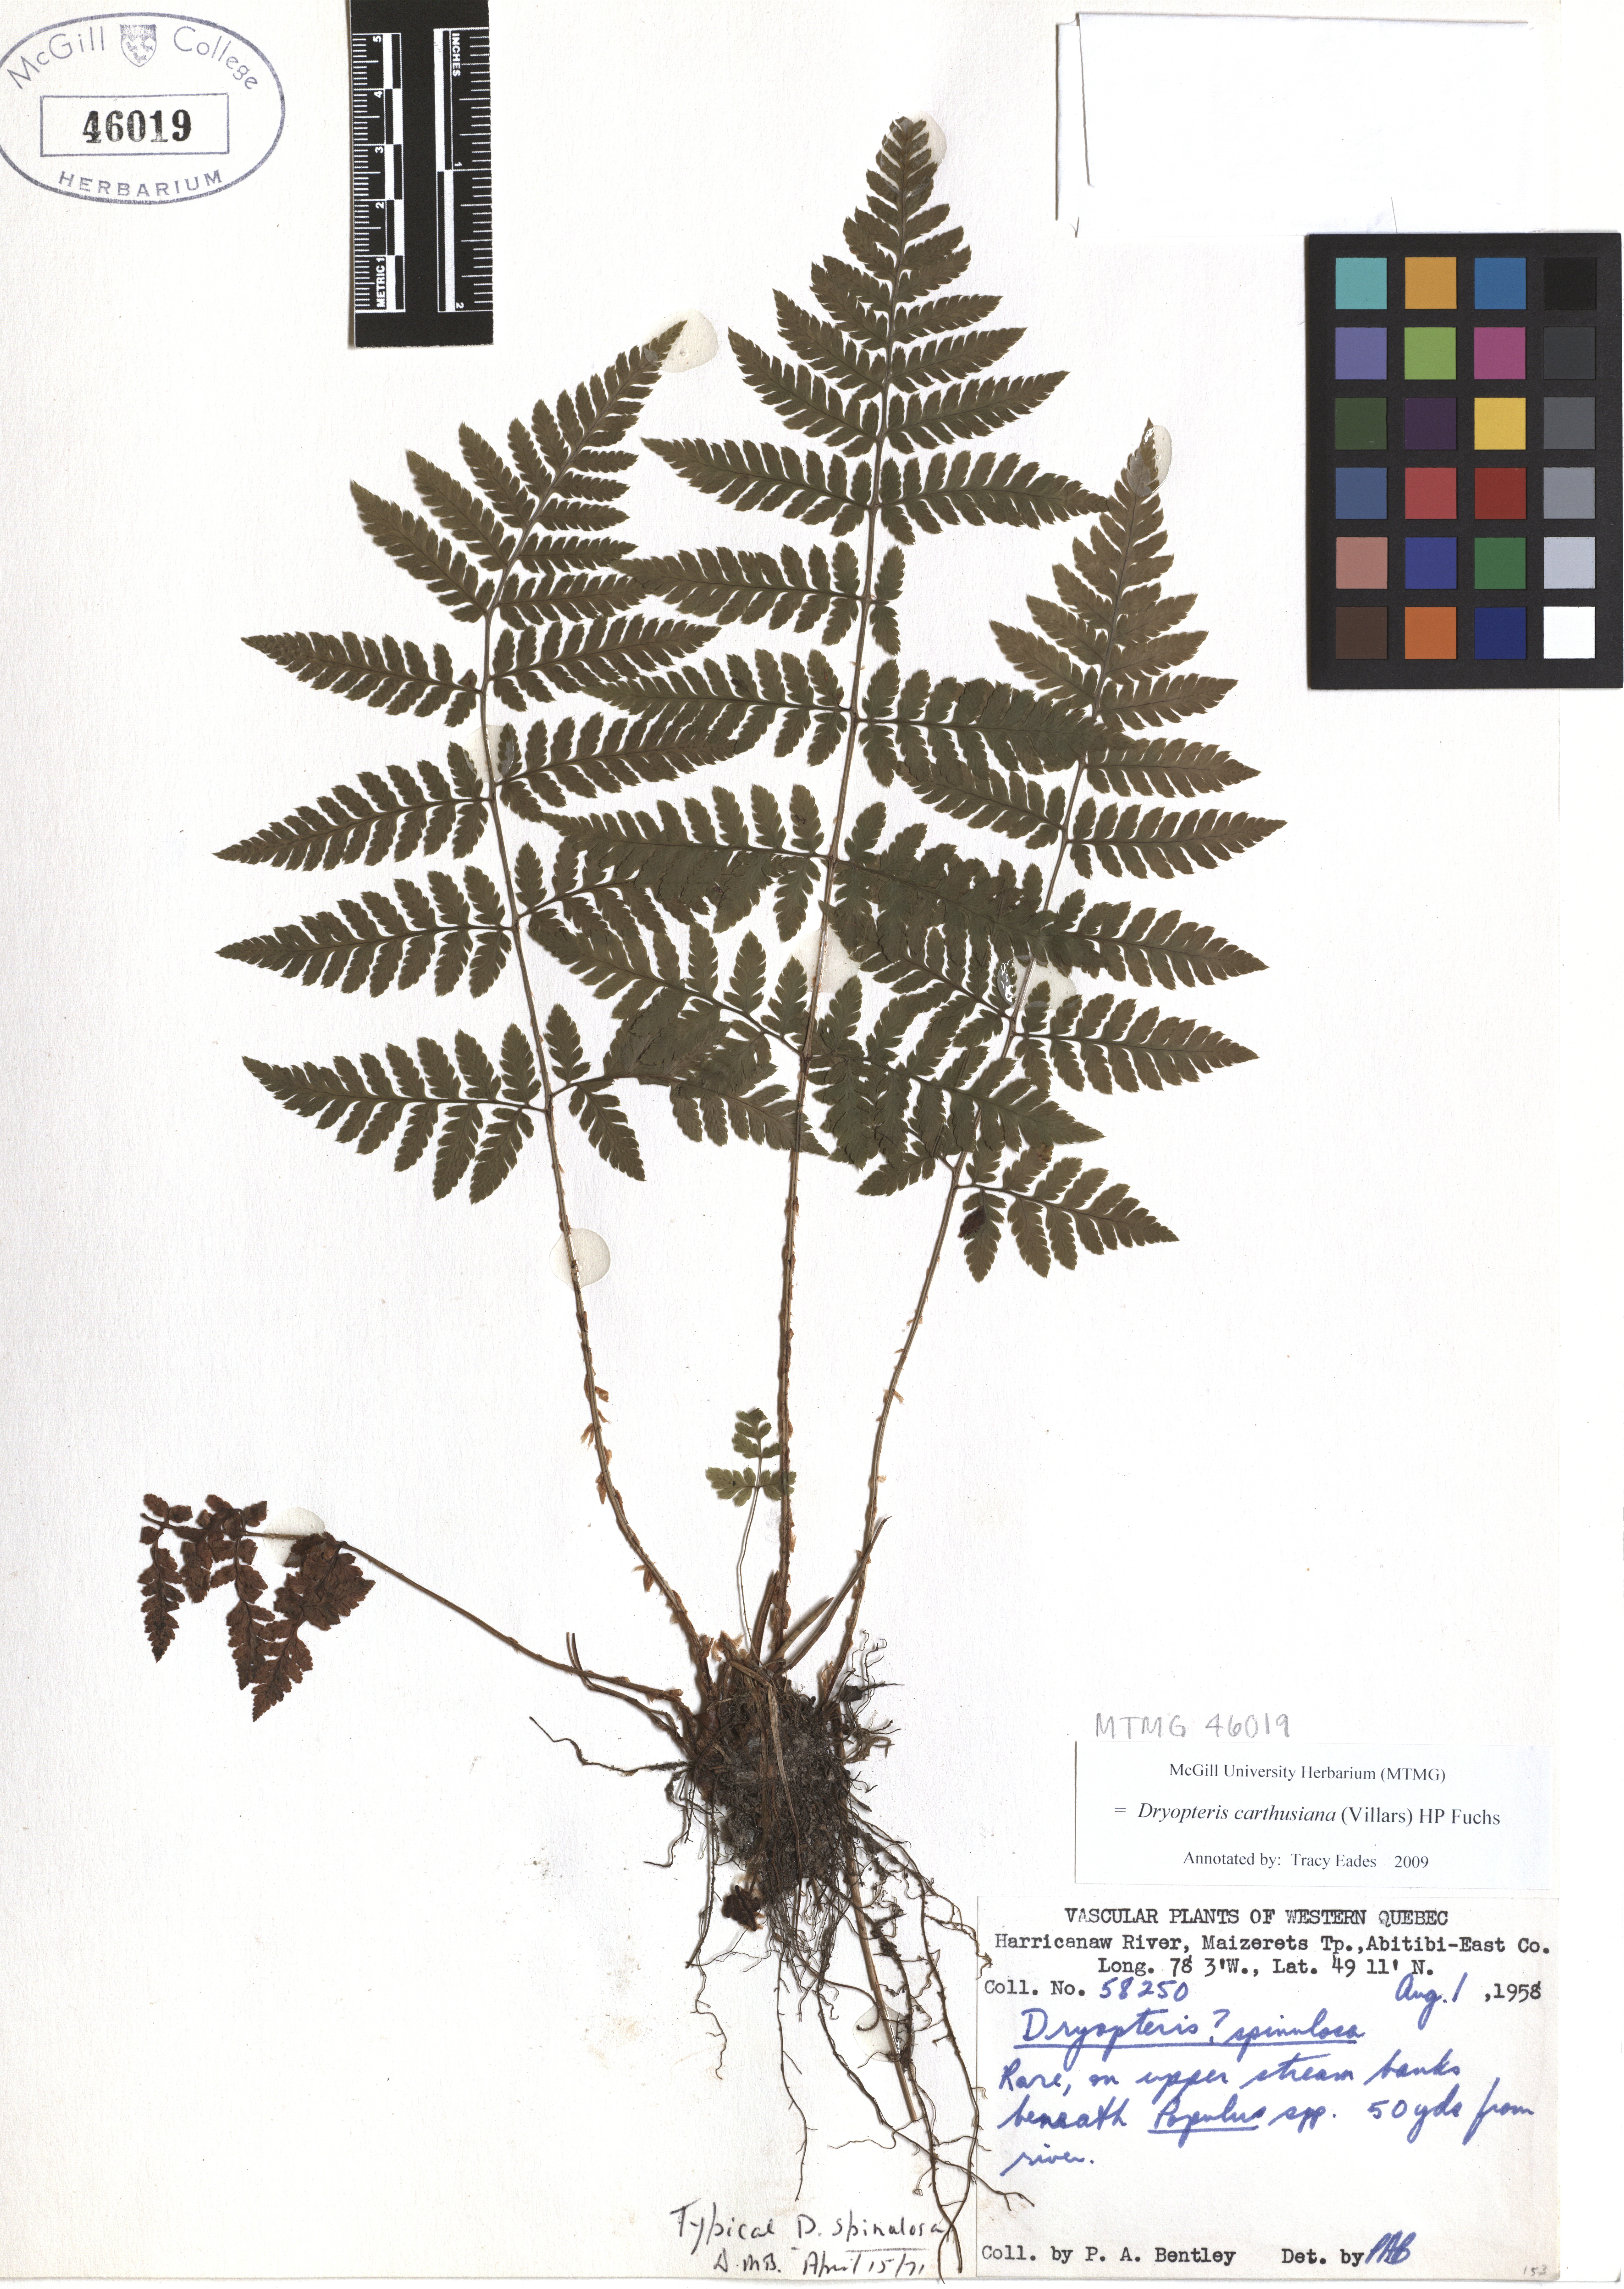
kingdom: Plantae
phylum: Tracheophyta
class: Polypodiopsida
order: Polypodiales
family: Dryopteridaceae
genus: Dryopteris
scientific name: Dryopteris carthusiana
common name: Narrow buckler-fern
